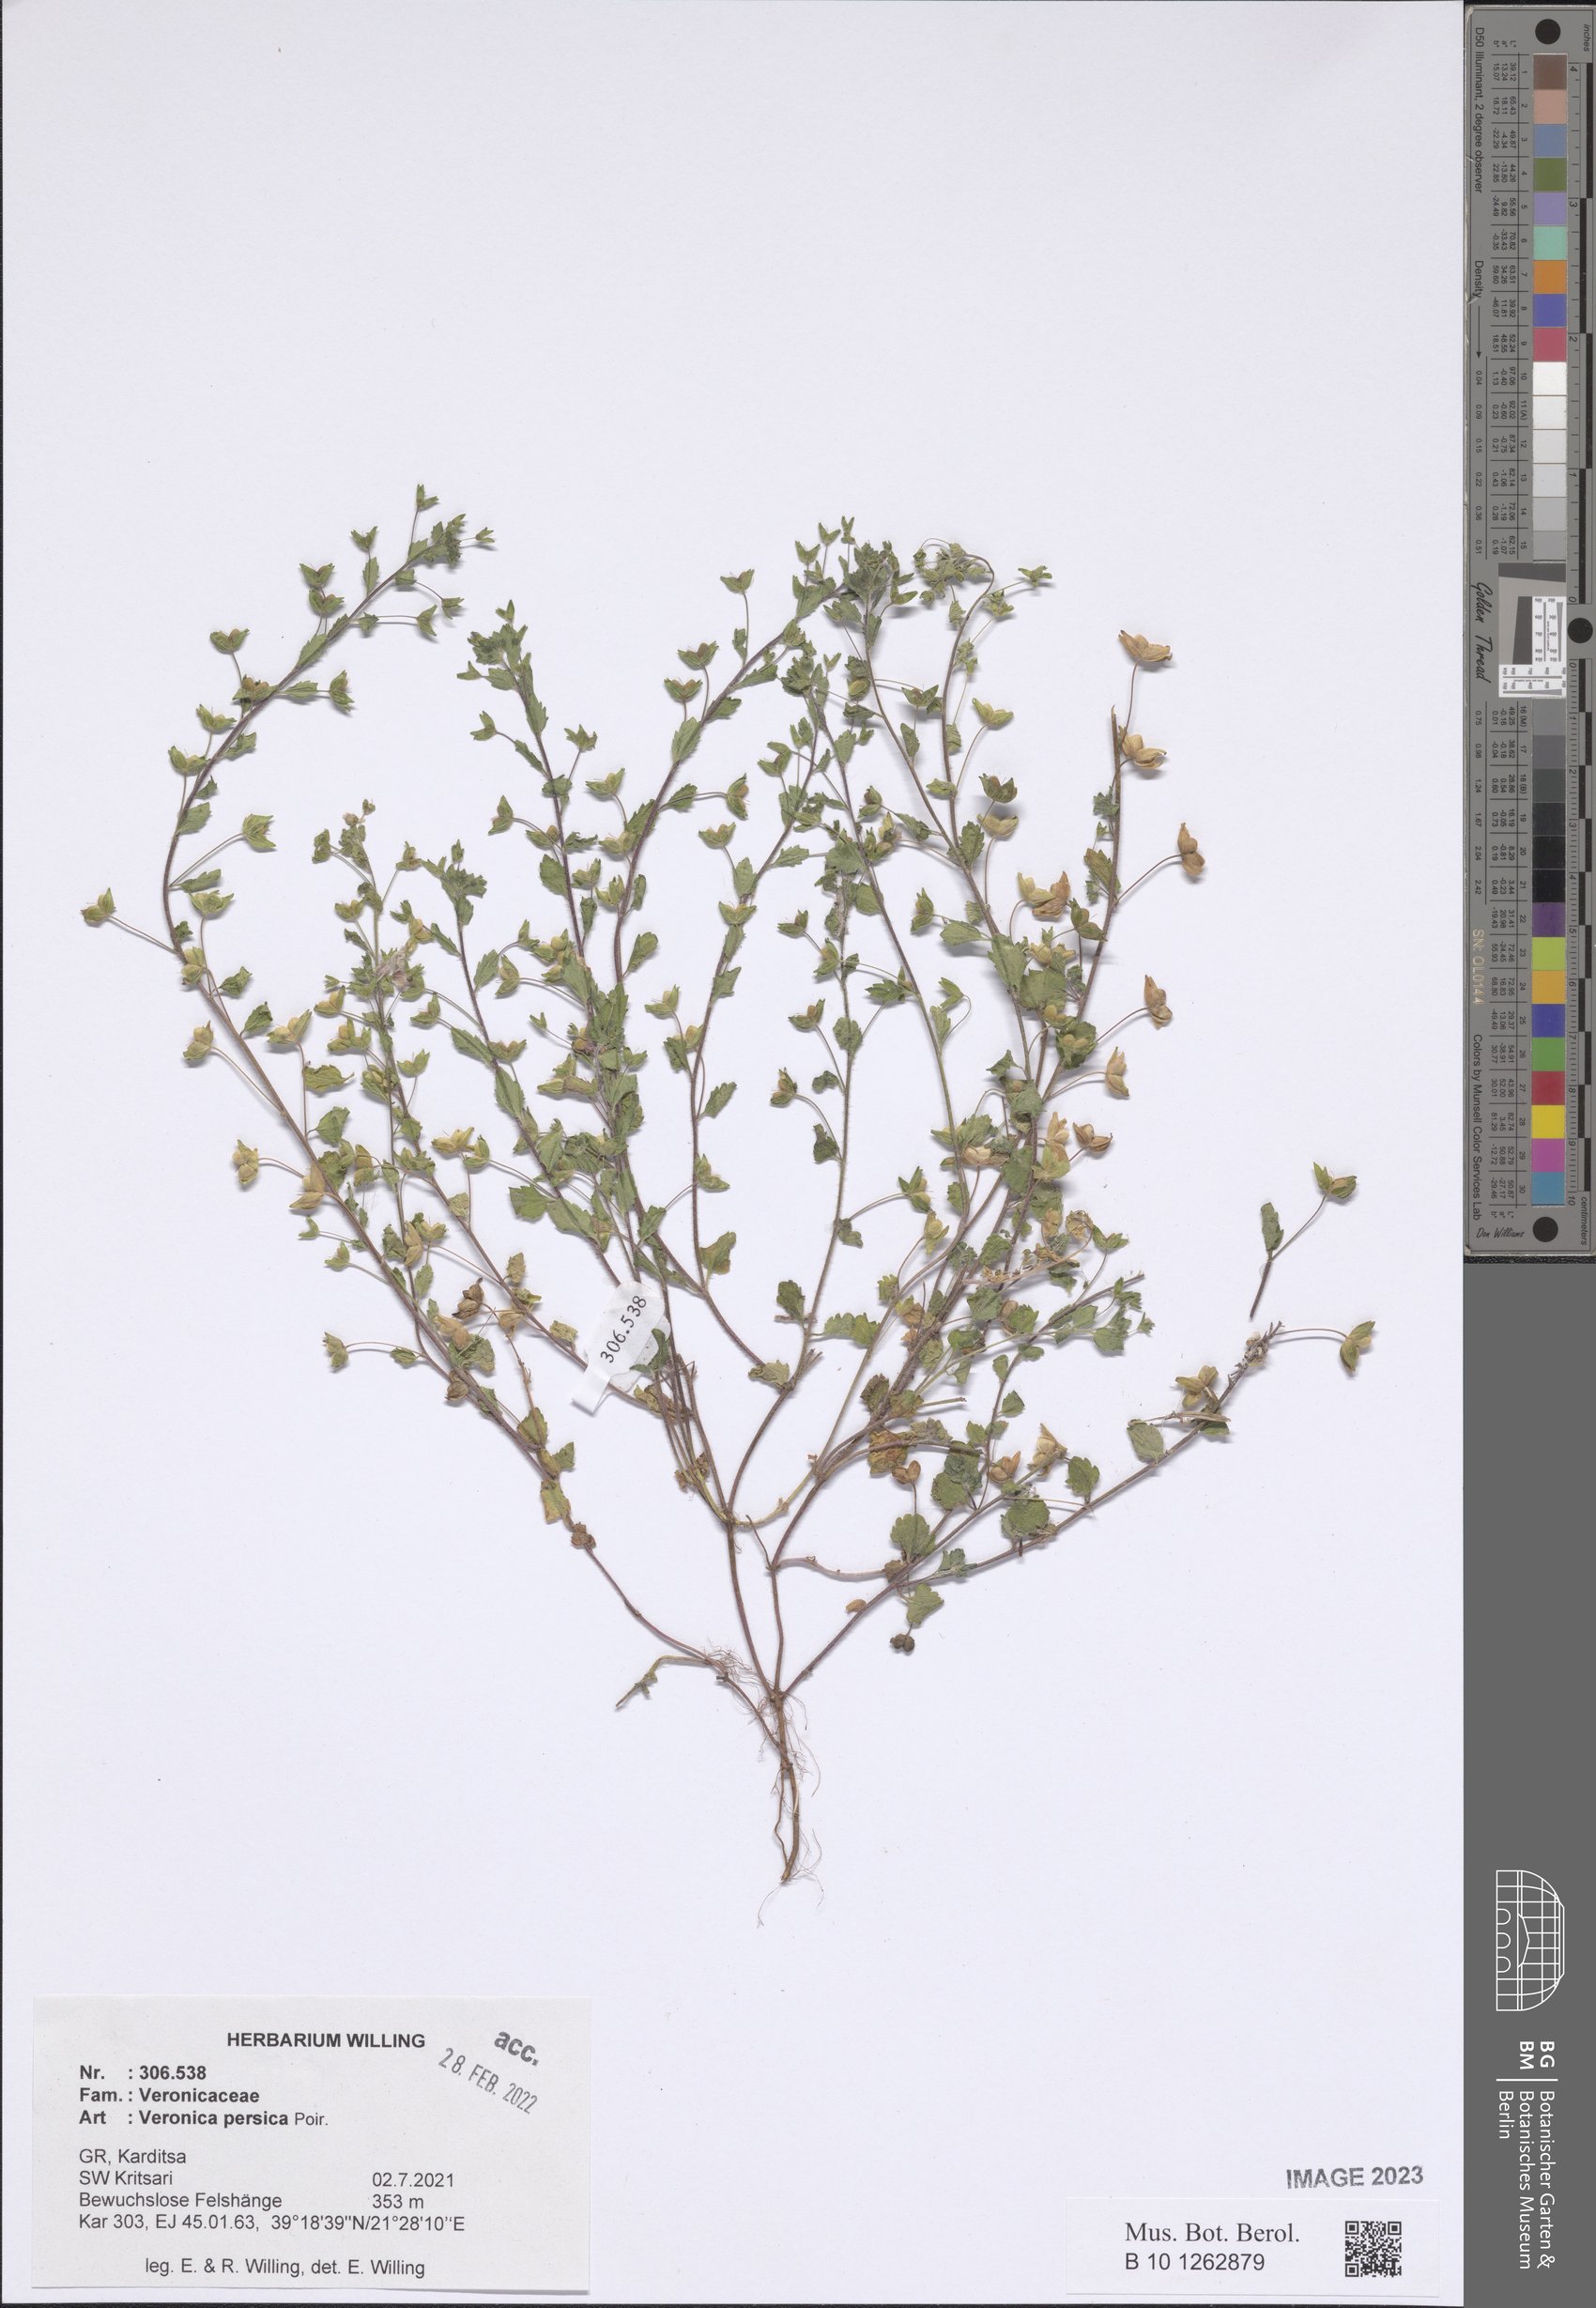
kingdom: Plantae
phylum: Tracheophyta
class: Magnoliopsida
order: Lamiales
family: Plantaginaceae
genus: Veronica
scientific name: Veronica persica
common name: Common field-speedwell
